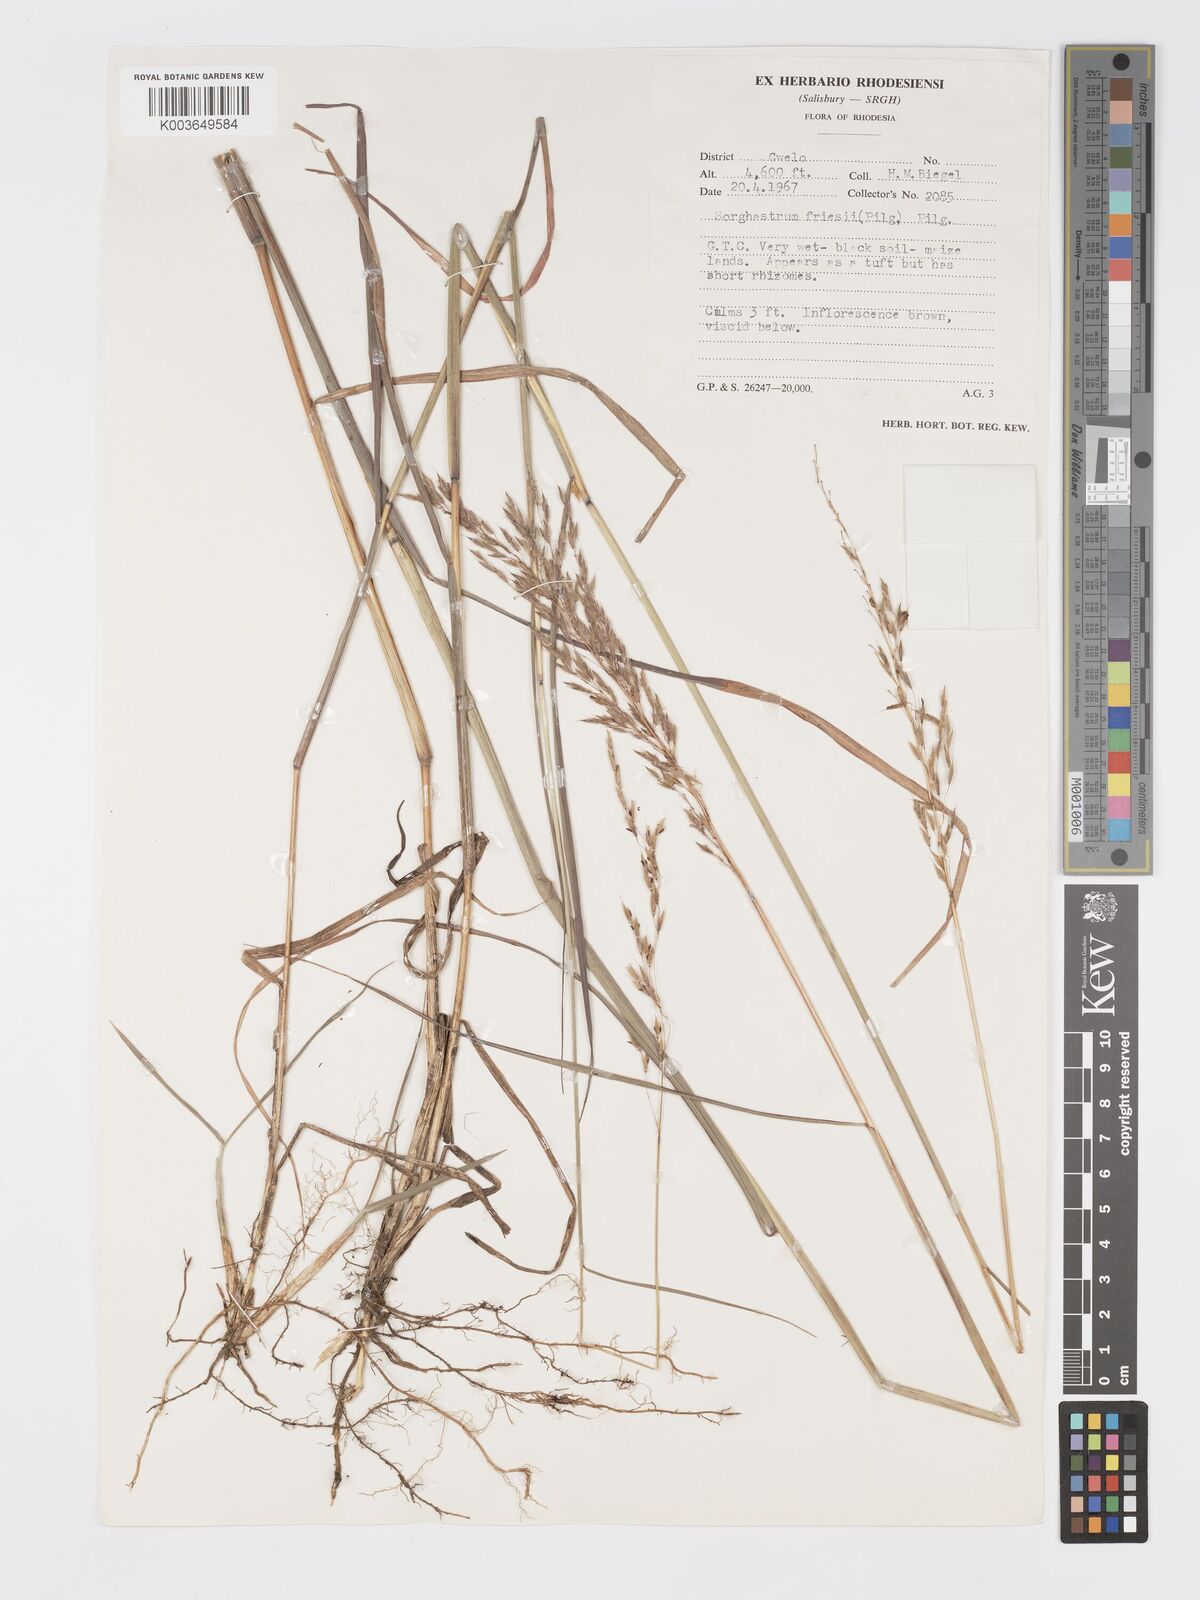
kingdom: Plantae
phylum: Tracheophyta
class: Liliopsida
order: Poales
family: Poaceae
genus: Sorghastrum
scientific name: Sorghastrum nudipes
